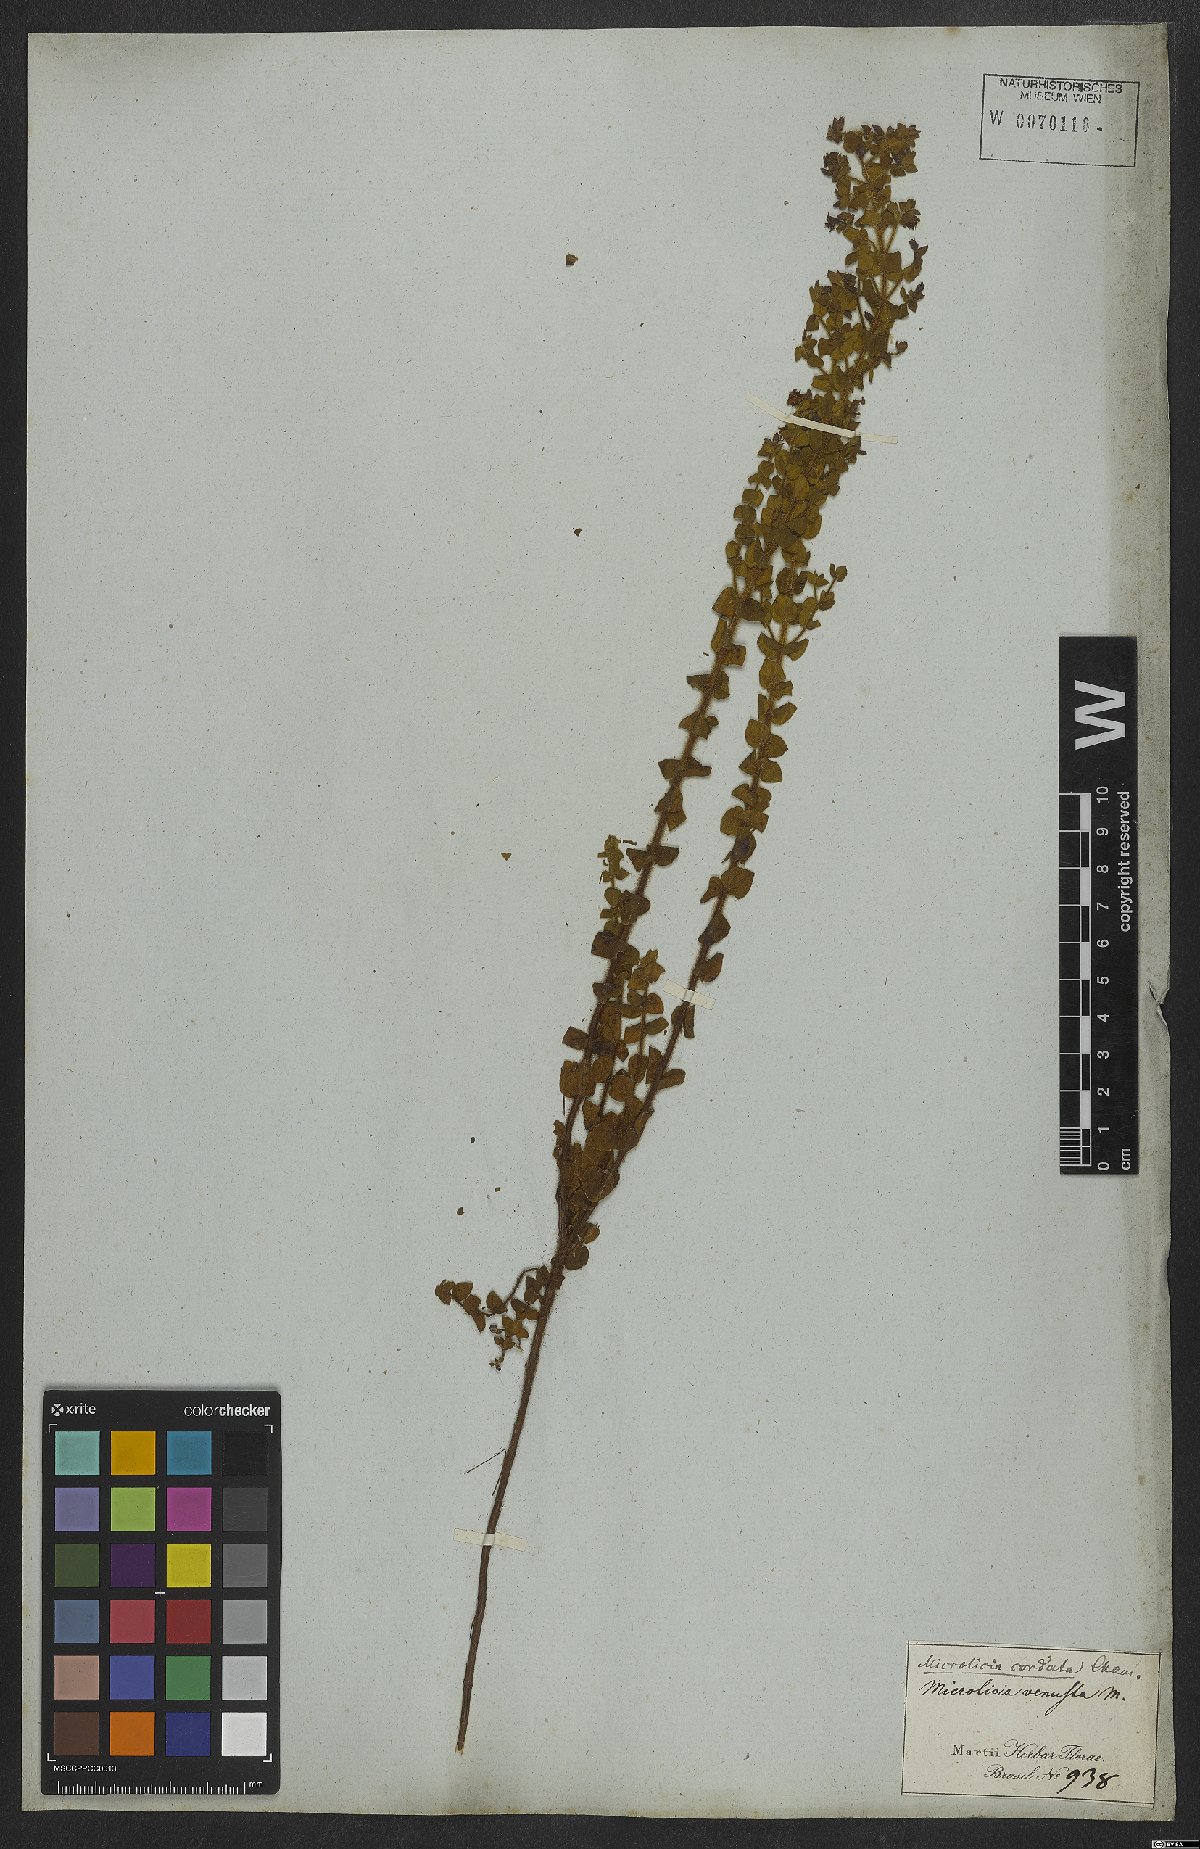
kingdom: Plantae
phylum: Tracheophyta
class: Magnoliopsida
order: Myrtales
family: Melastomataceae
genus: Microlicia
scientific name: Microlicia cordata
